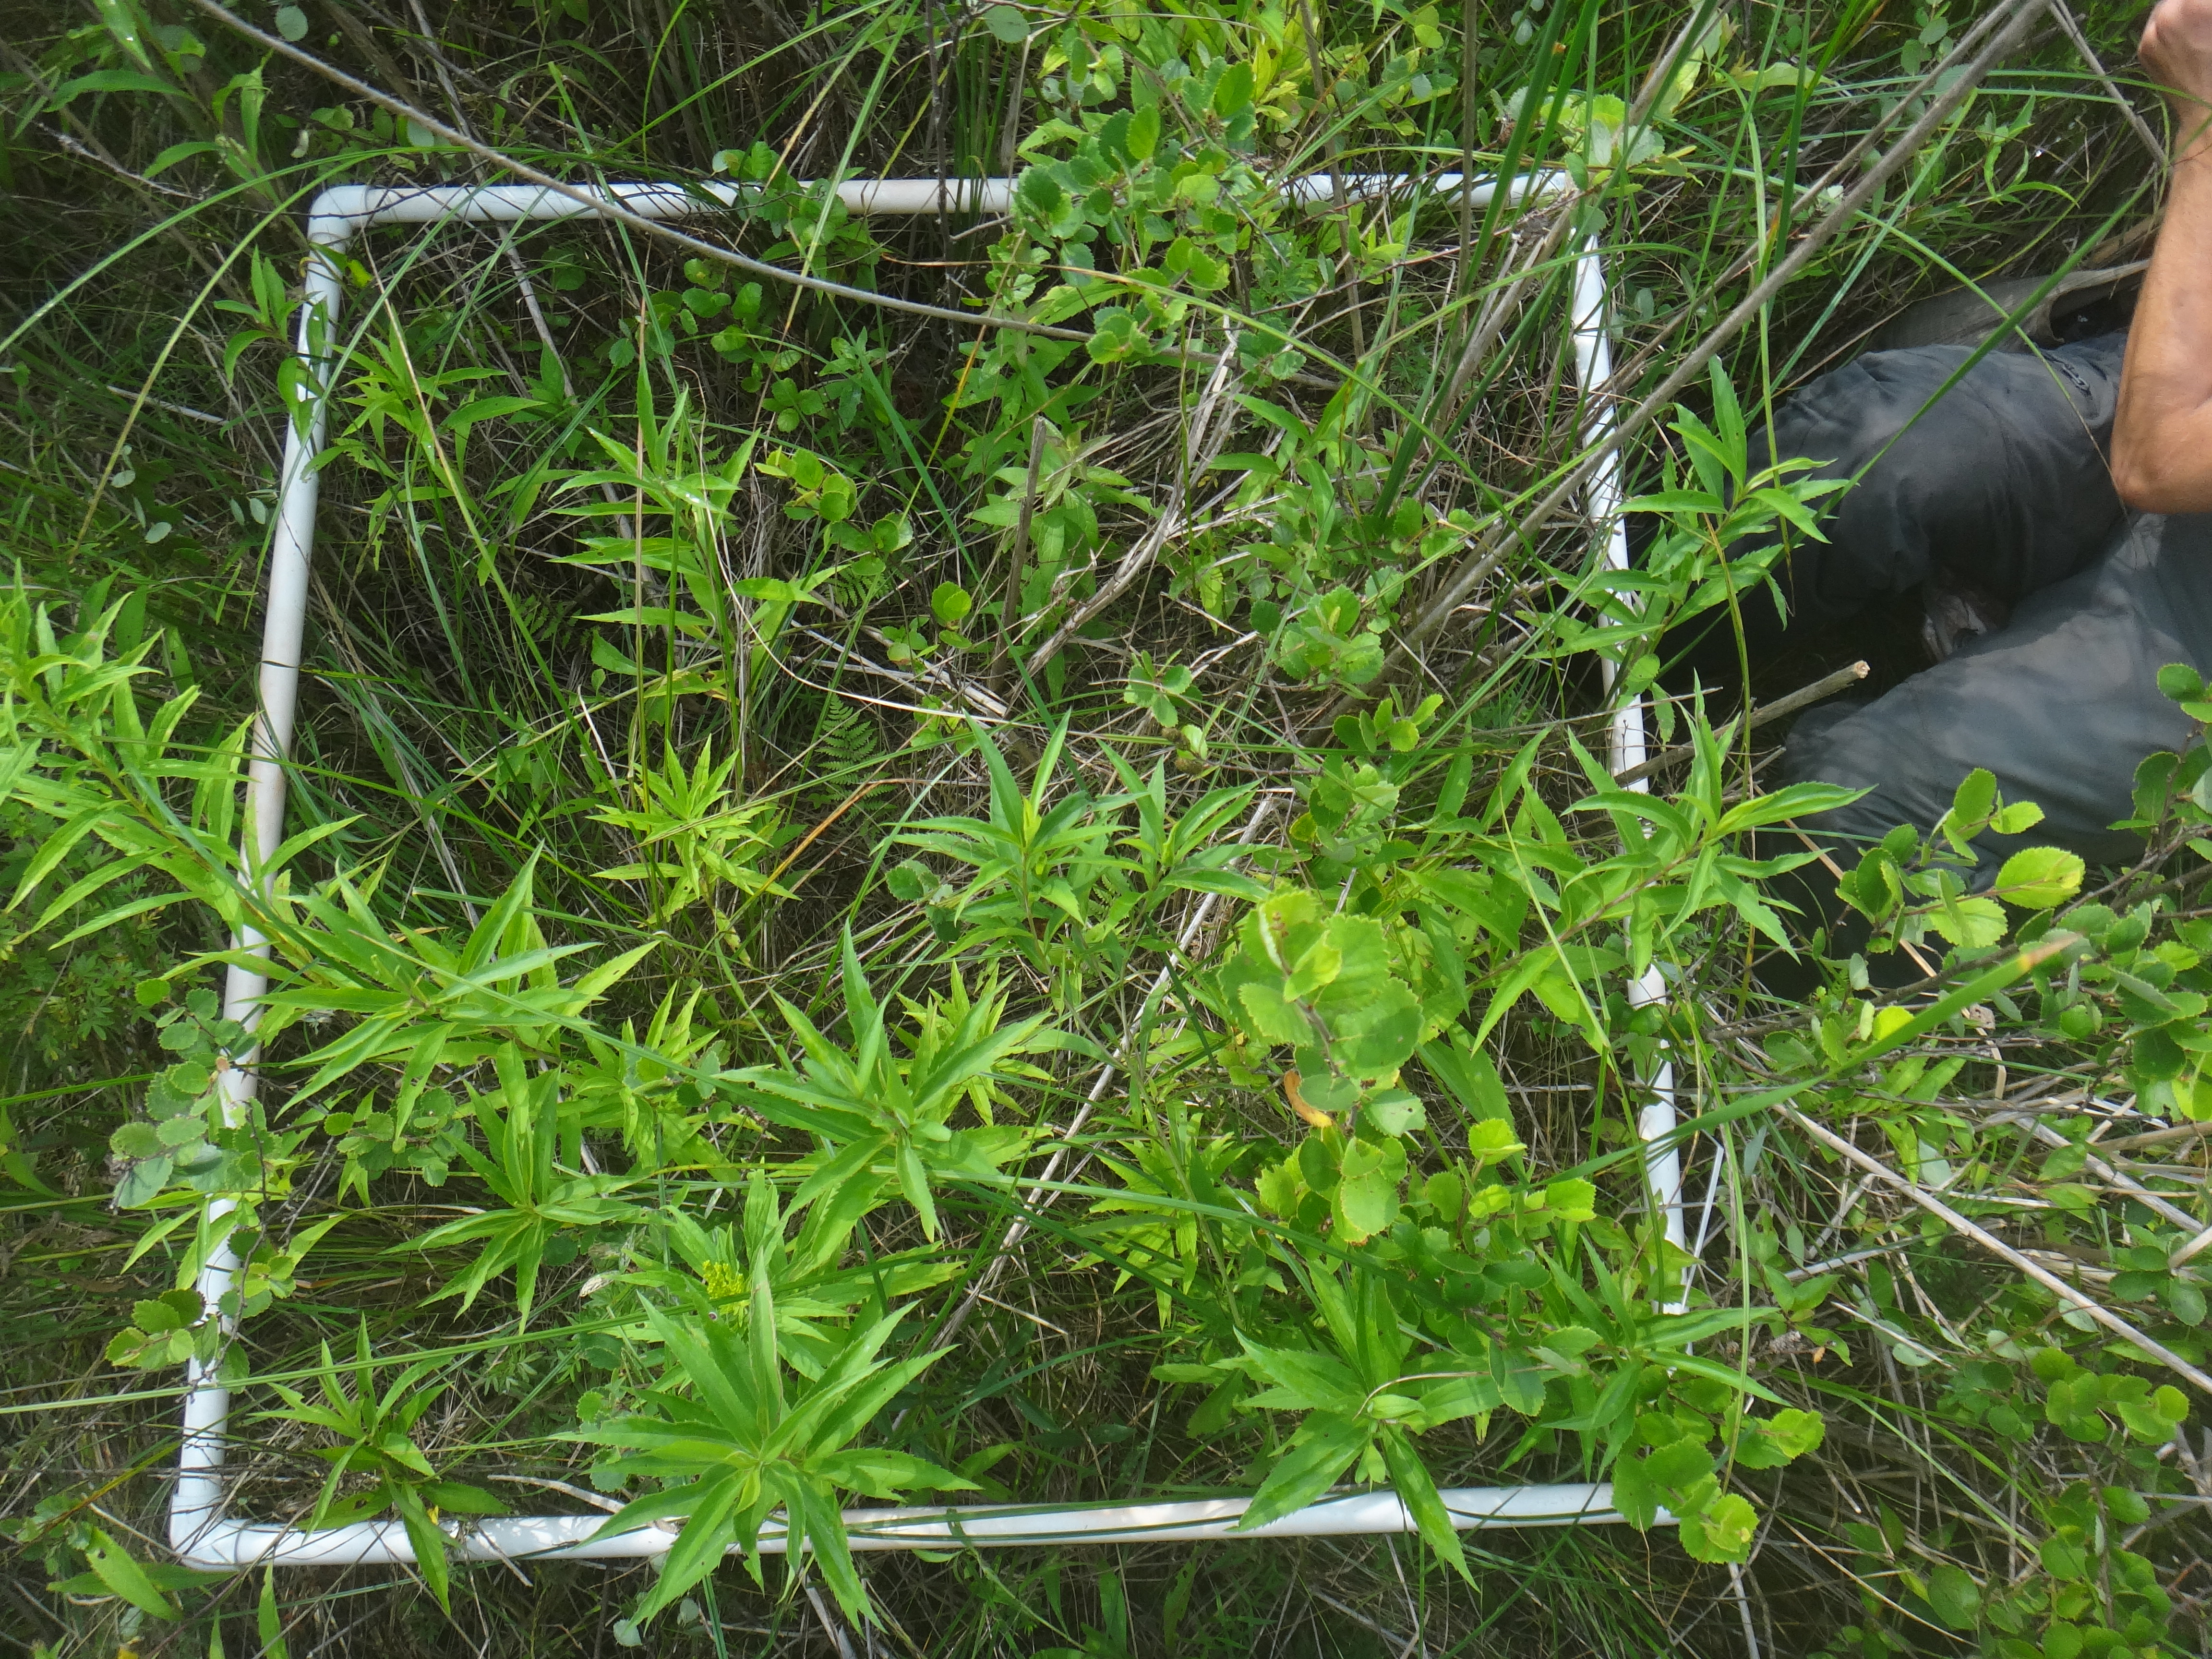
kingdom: Plantae
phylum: Tracheophyta
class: Liliopsida
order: Poales
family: Poaceae
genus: Muhlenbergia
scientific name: Muhlenbergia glomerata
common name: Bog muhly
